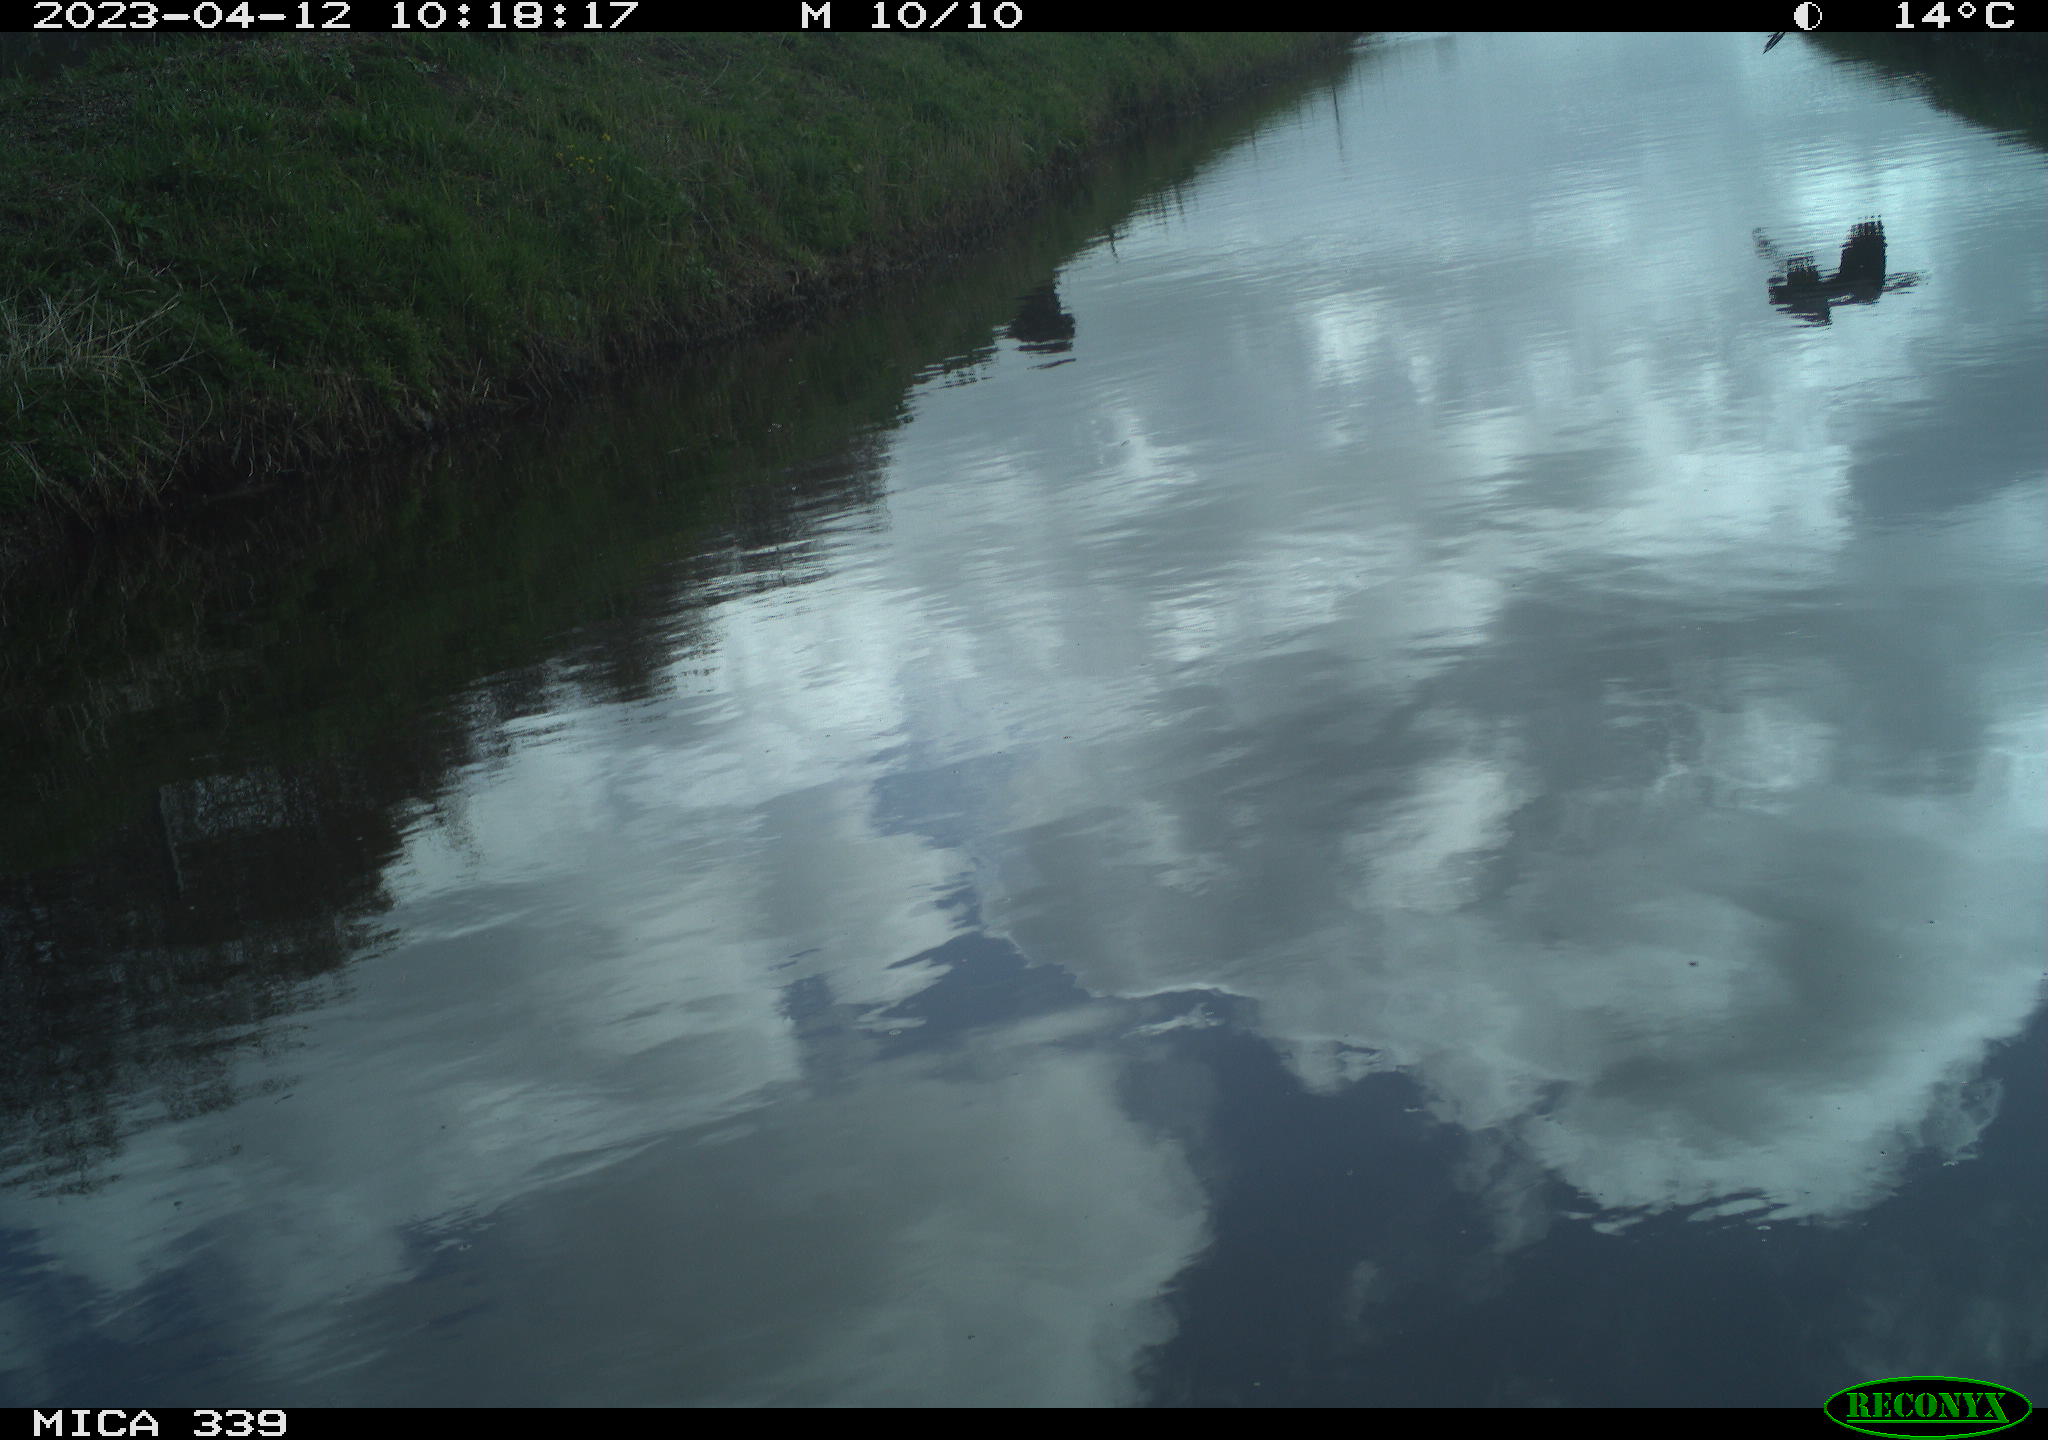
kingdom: Animalia
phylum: Chordata
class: Aves
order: Pelecaniformes
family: Ardeidae
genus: Ardea
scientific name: Ardea cinerea
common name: Grey heron
